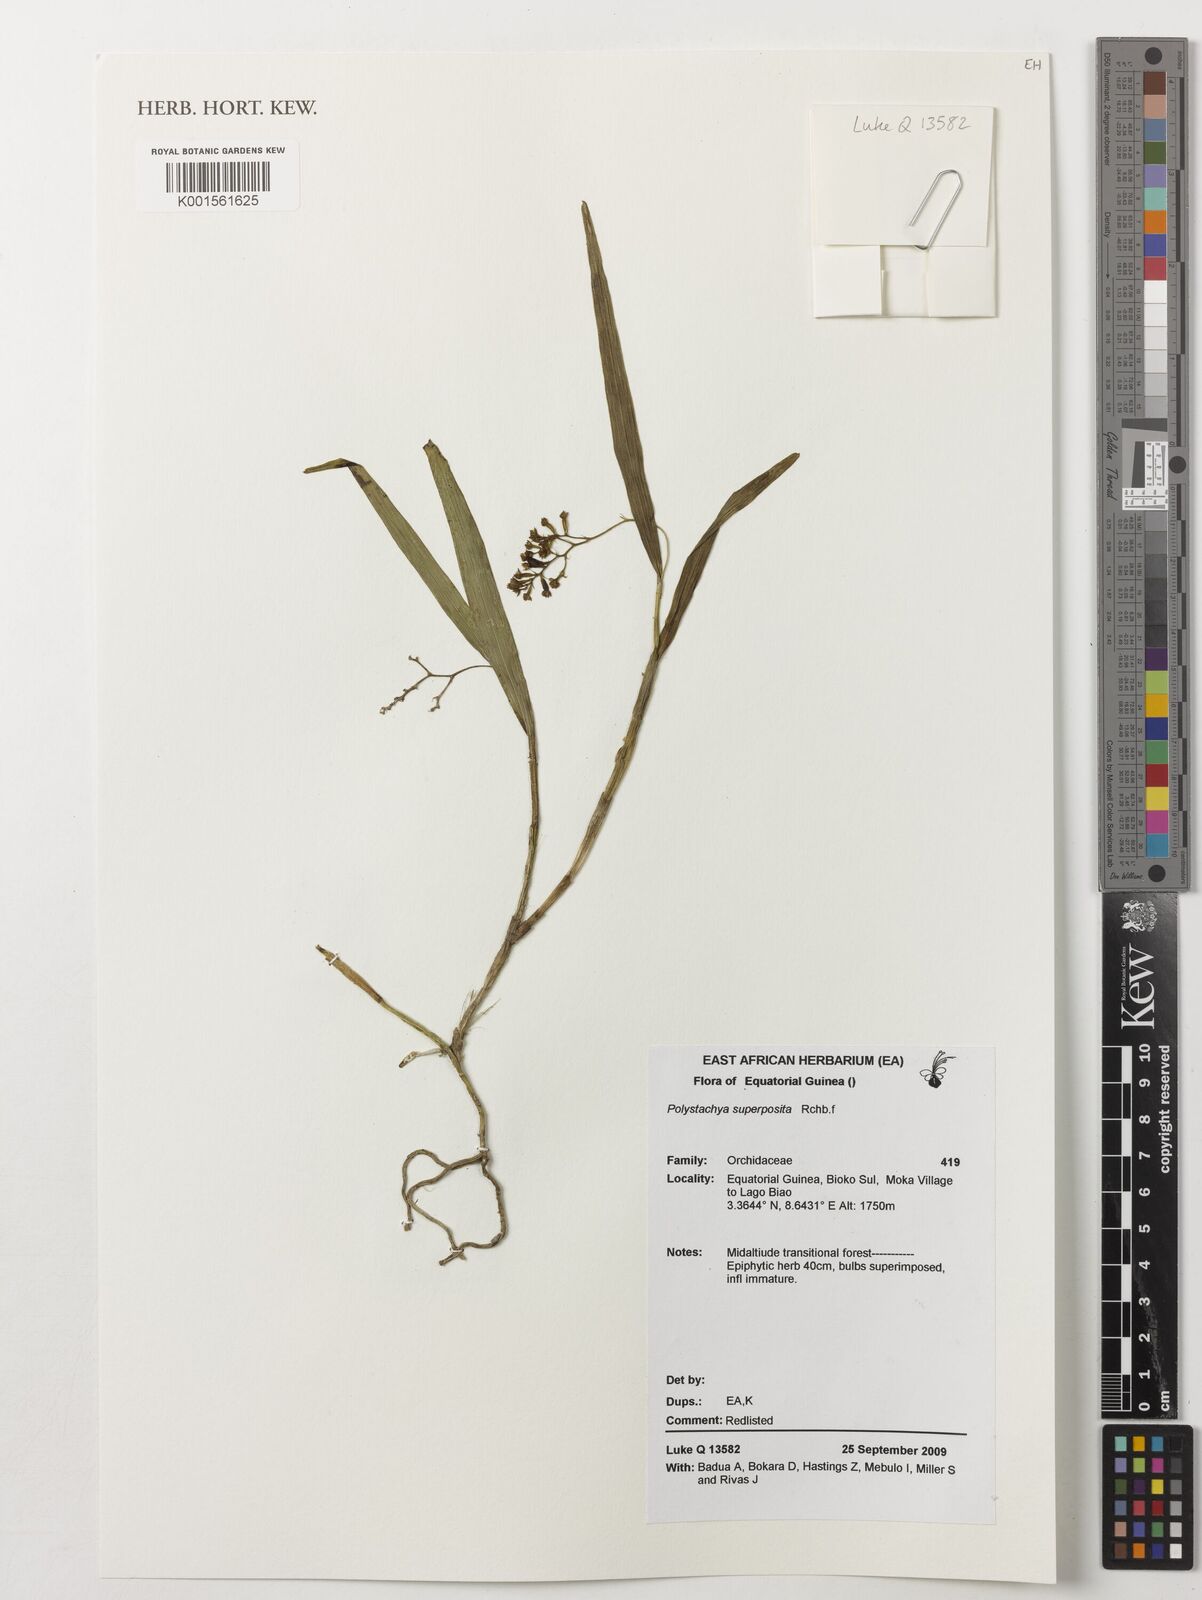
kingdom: Plantae
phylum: Tracheophyta
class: Liliopsida
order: Asparagales
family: Orchidaceae
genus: Polystachya
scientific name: Polystachya superposita
